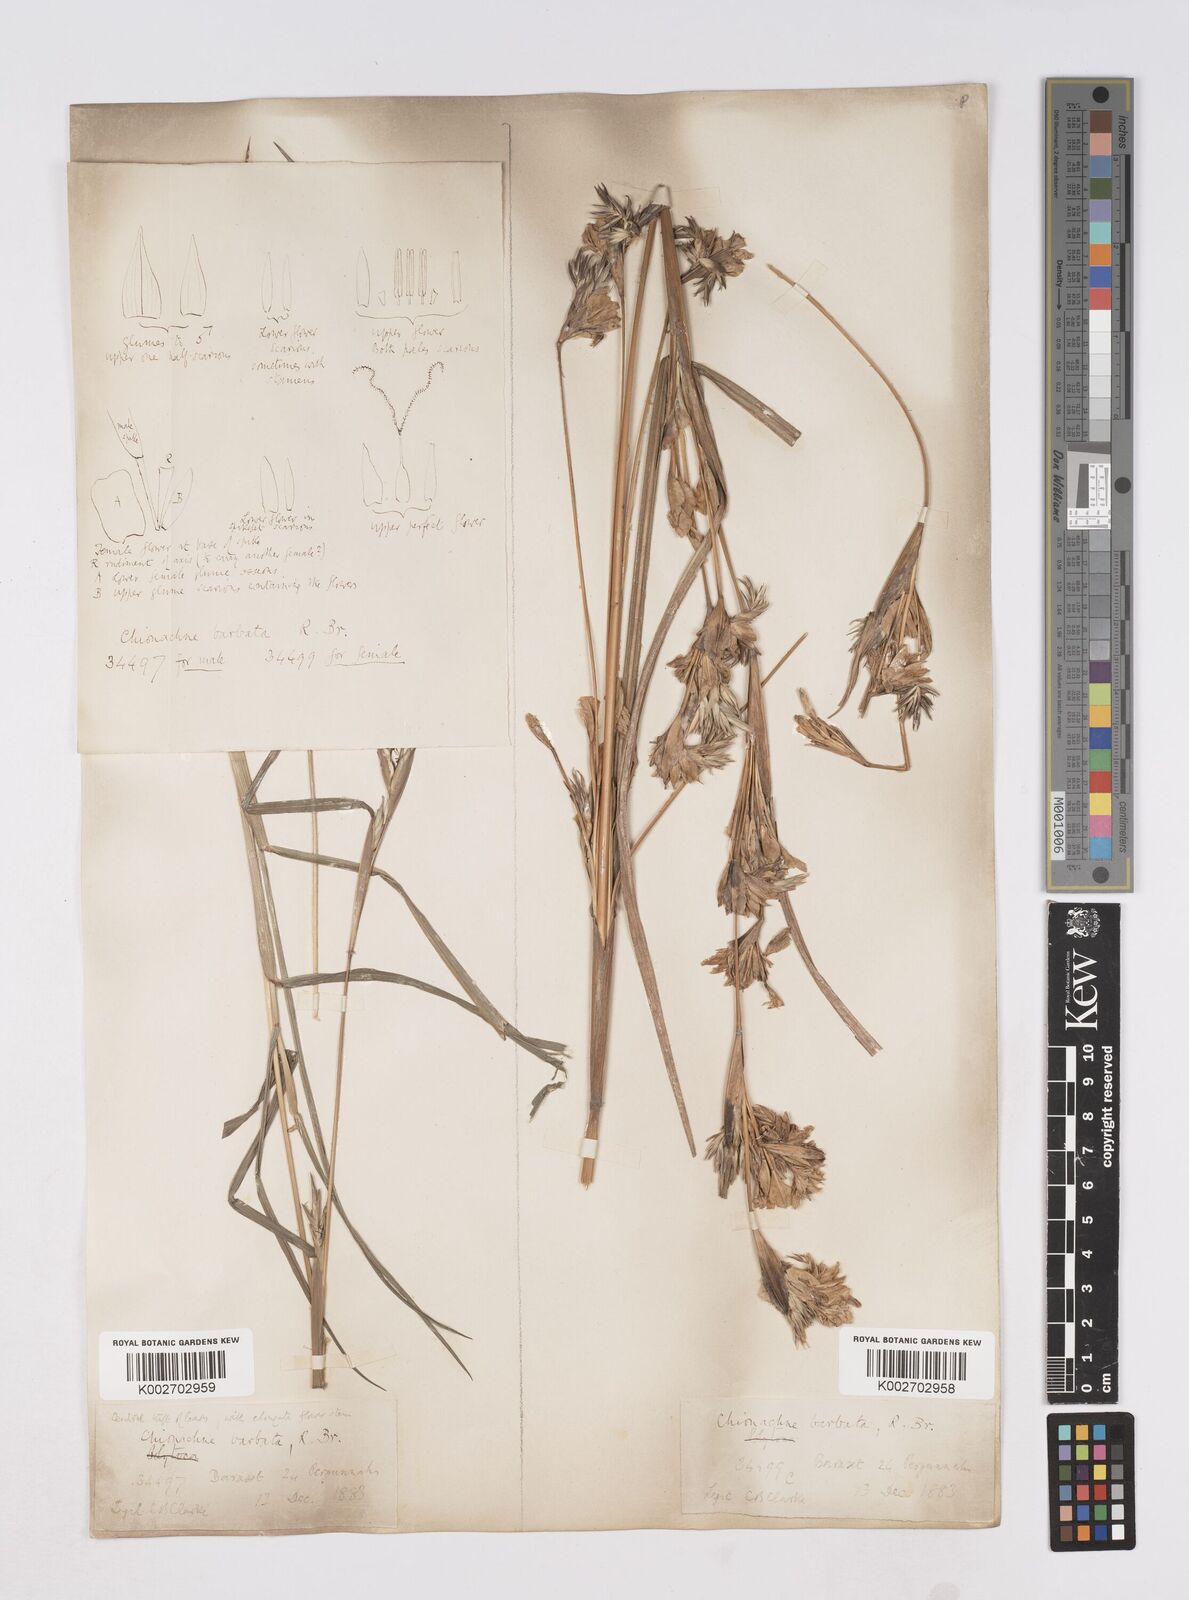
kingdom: Plantae
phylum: Tracheophyta
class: Liliopsida
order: Poales
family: Poaceae
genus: Polytoca
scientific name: Polytoca gigantea
